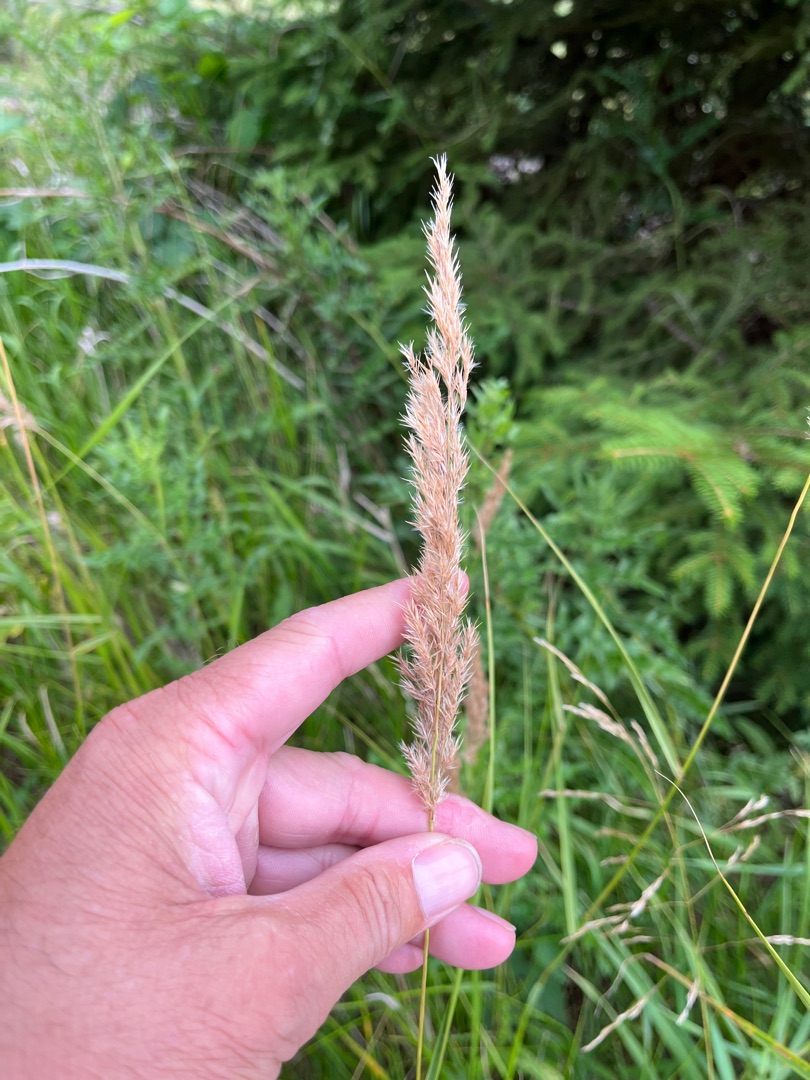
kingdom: Plantae
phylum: Tracheophyta
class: Liliopsida
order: Poales
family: Poaceae
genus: Calamagrostis
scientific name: Calamagrostis canescens
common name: Eng-rørhvene
